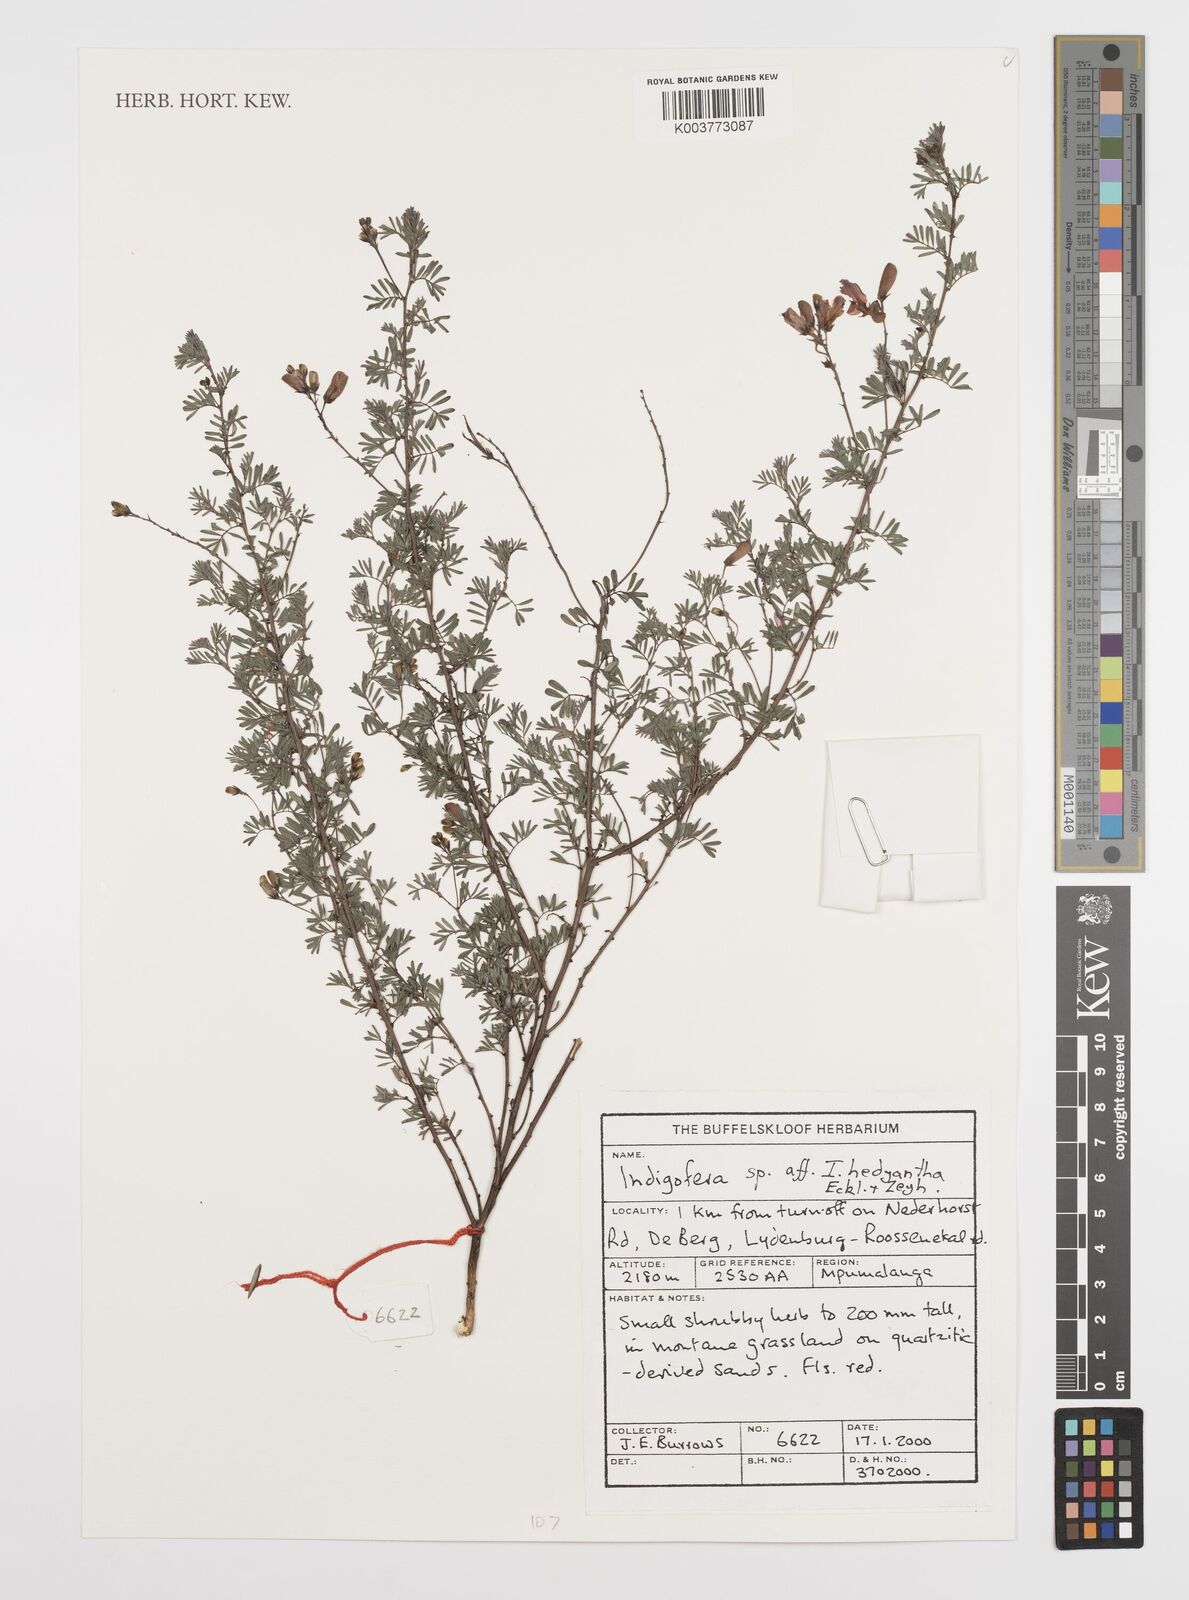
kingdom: Plantae
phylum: Tracheophyta
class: Magnoliopsida
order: Fabales
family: Fabaceae
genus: Indigofera
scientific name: Indigofera
